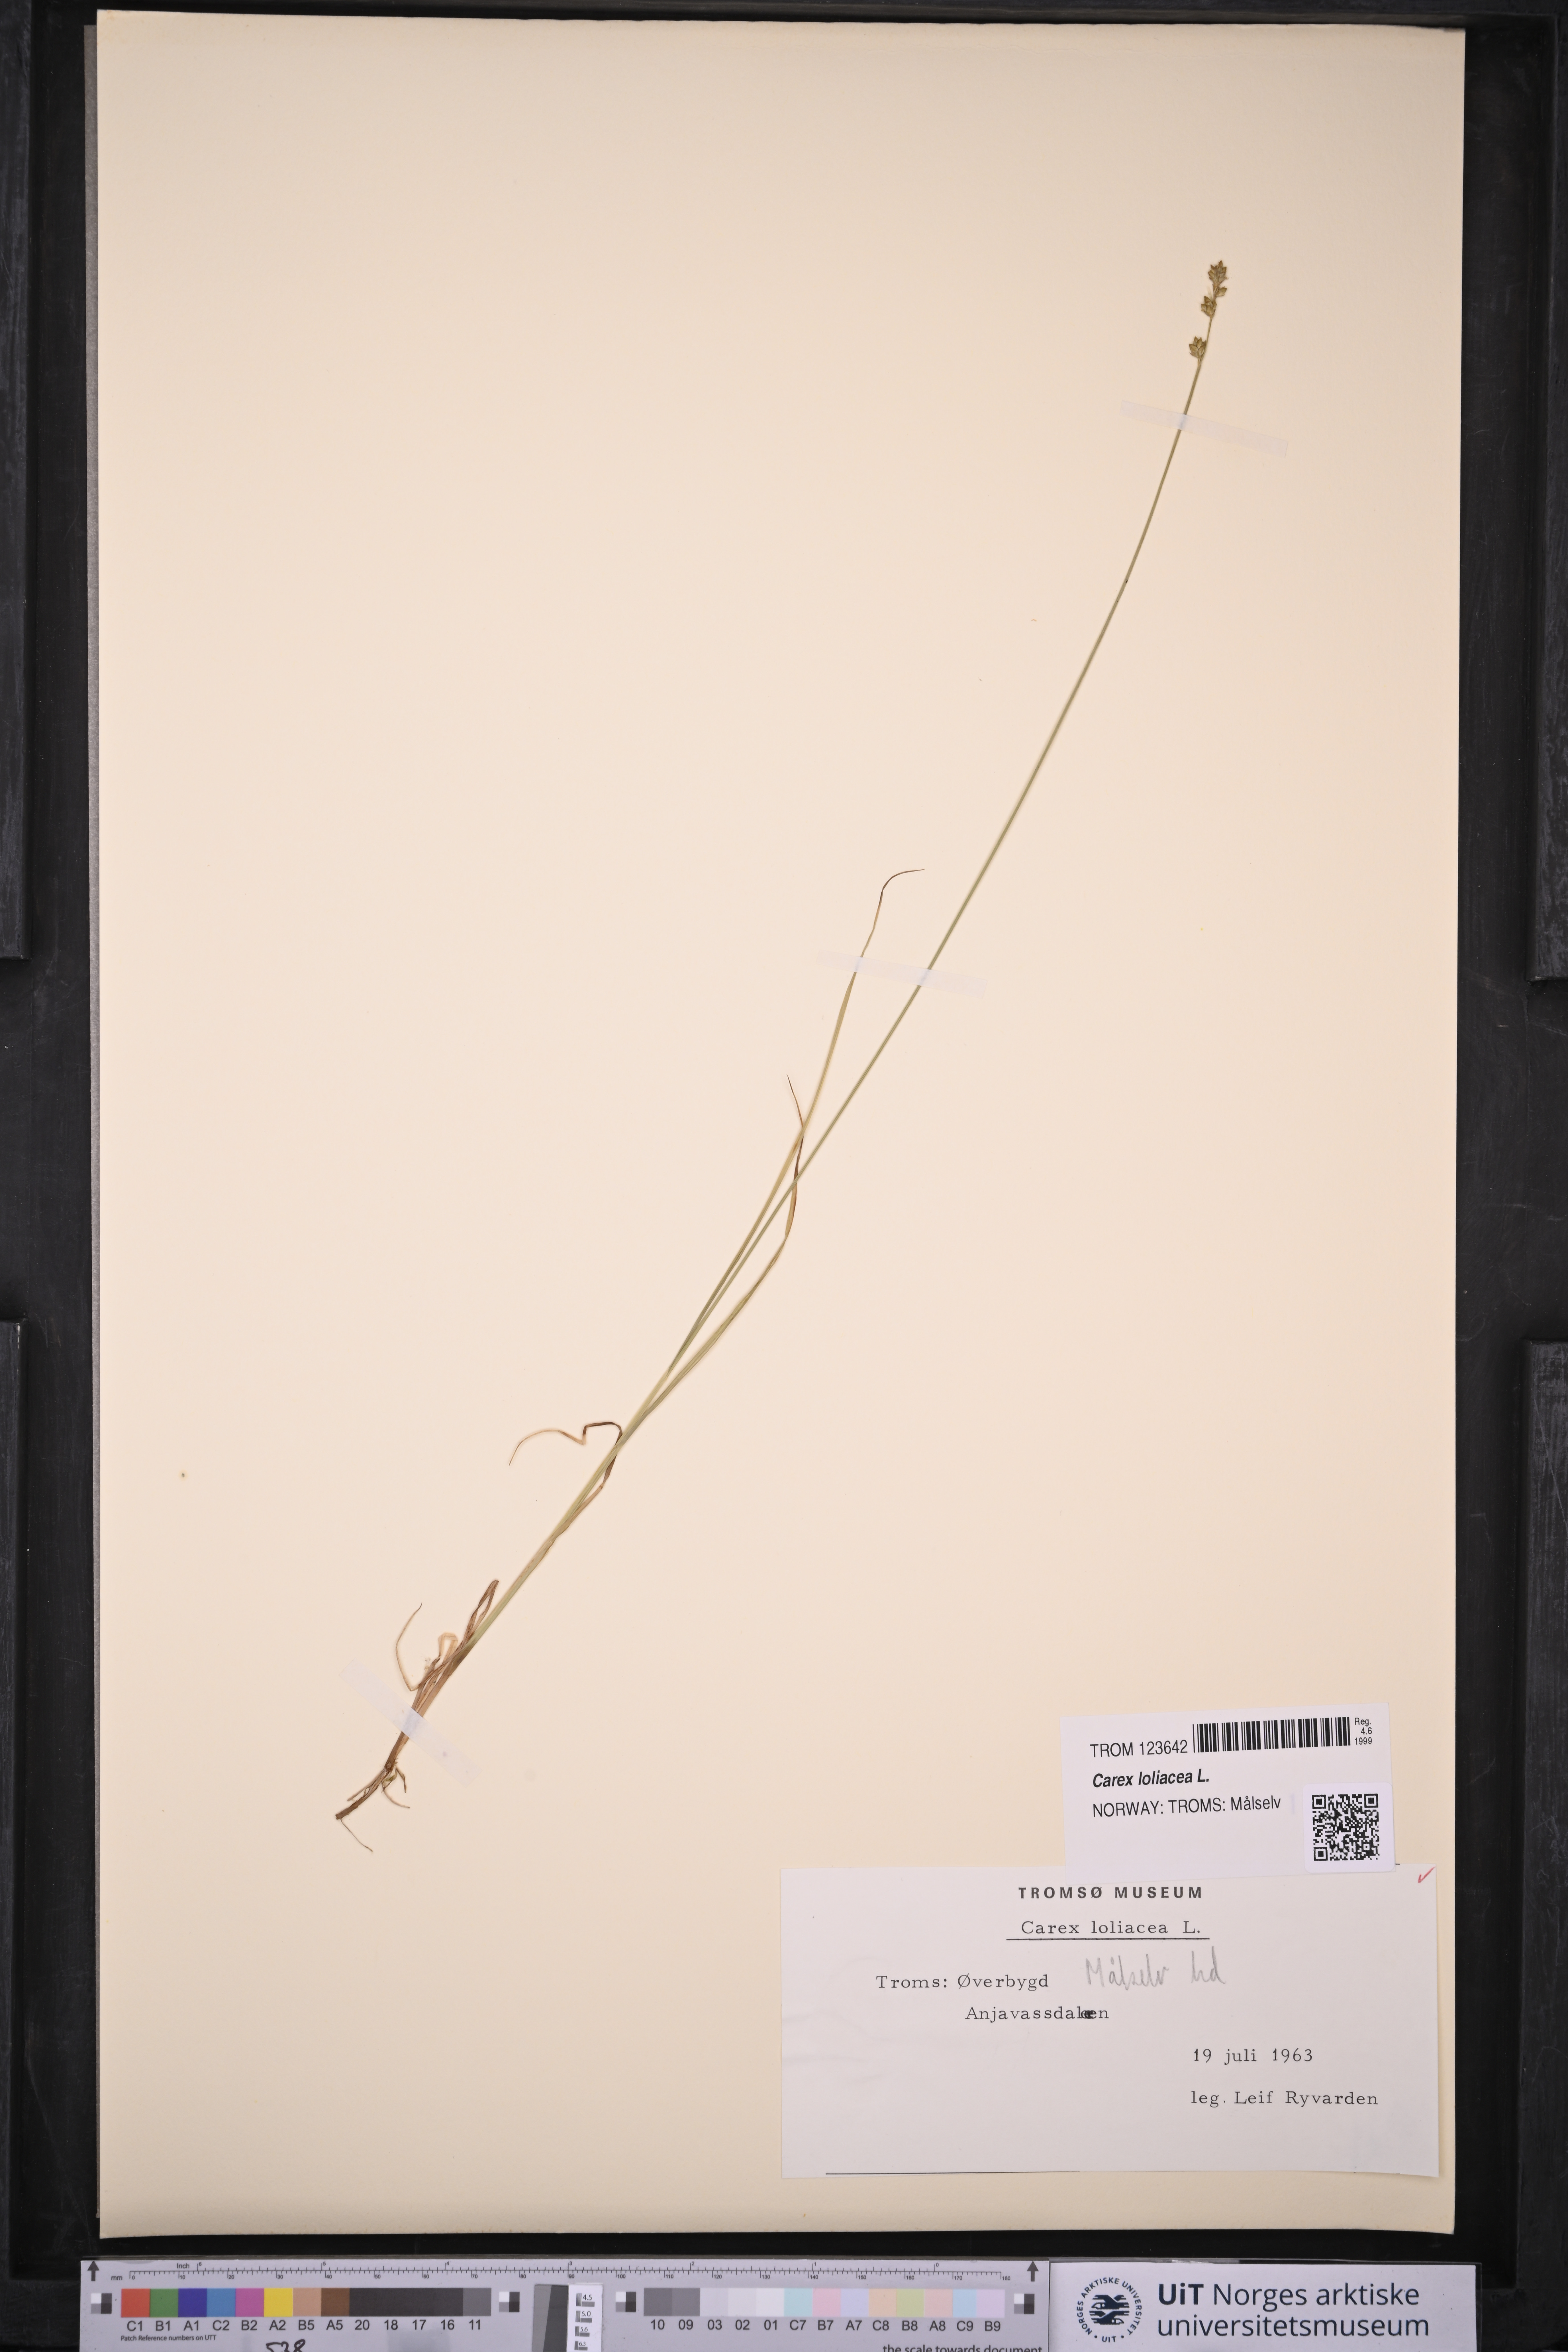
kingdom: Plantae
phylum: Tracheophyta
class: Liliopsida
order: Poales
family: Cyperaceae
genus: Carex
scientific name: Carex loliacea
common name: Ryegrass sedge
